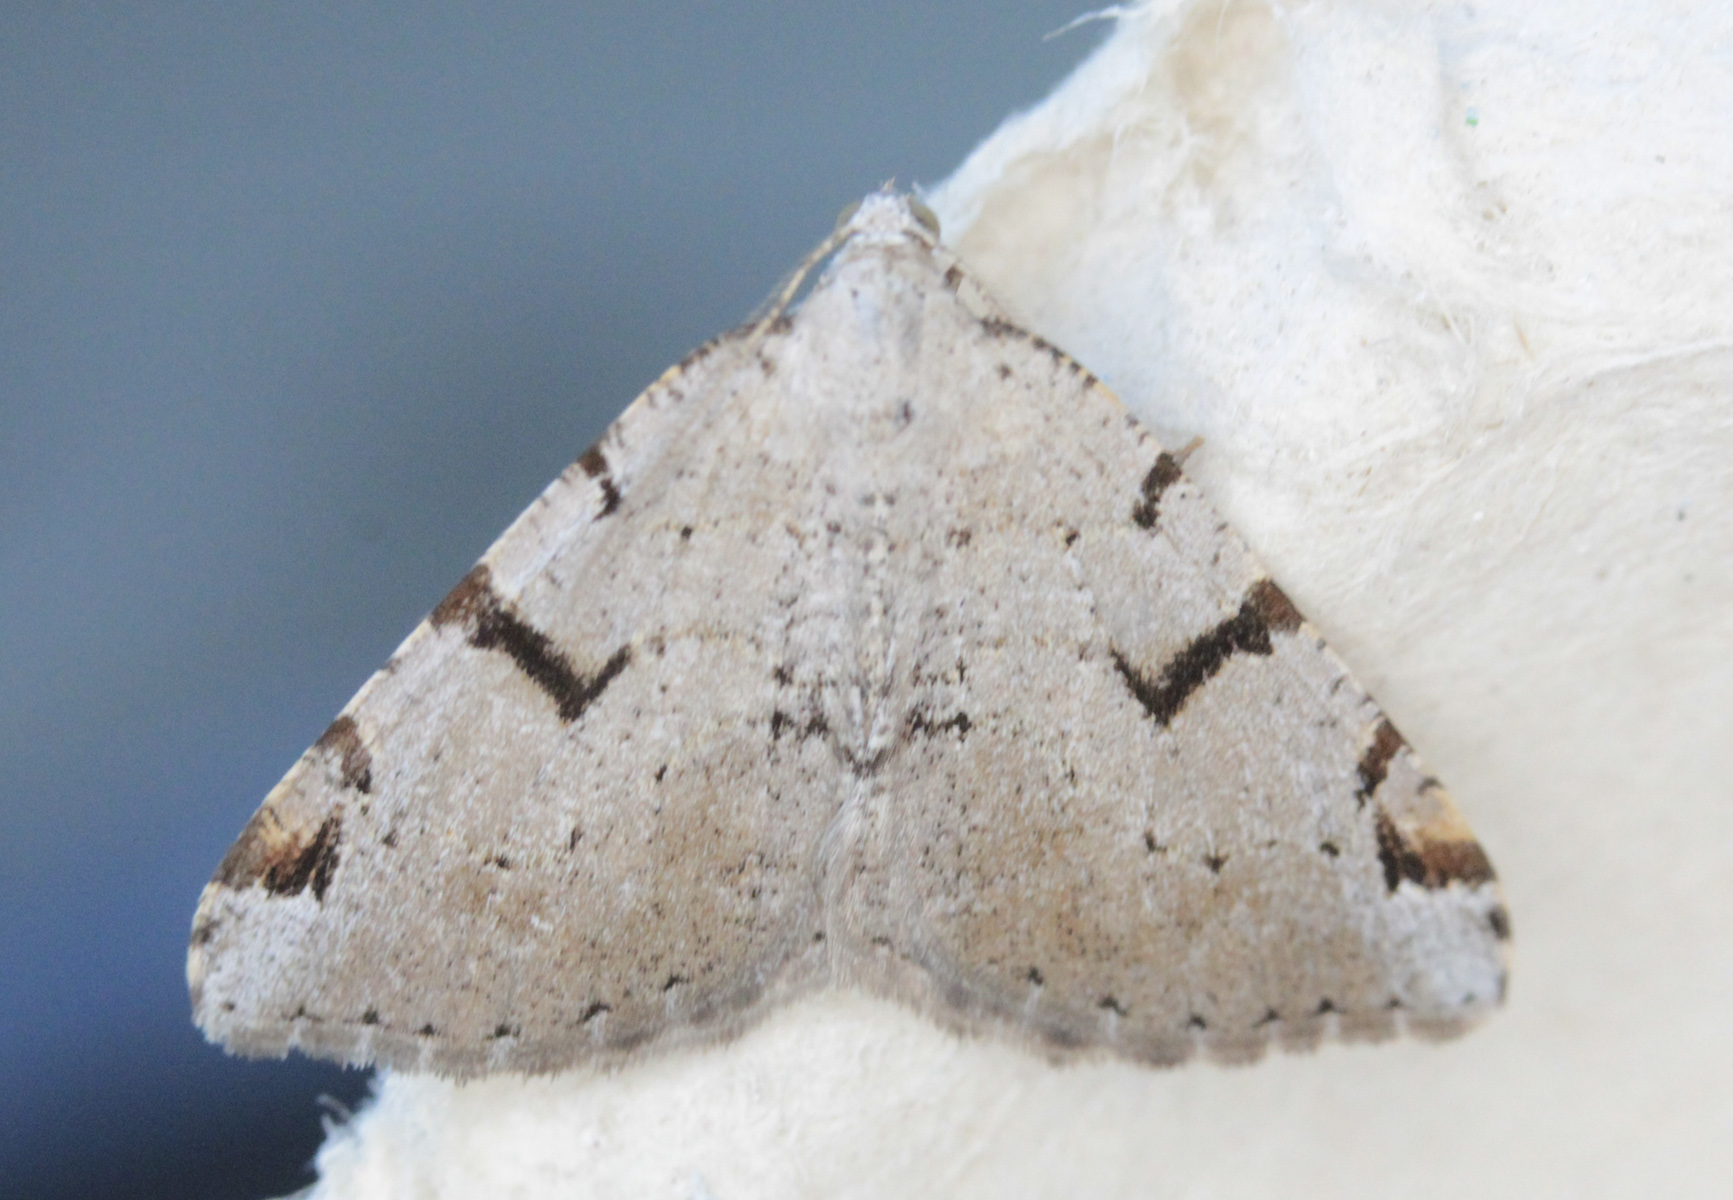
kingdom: Animalia
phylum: Arthropoda
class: Insecta
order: Lepidoptera
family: Geometridae
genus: Macaria
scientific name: Macaria wauaria
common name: V-moth
